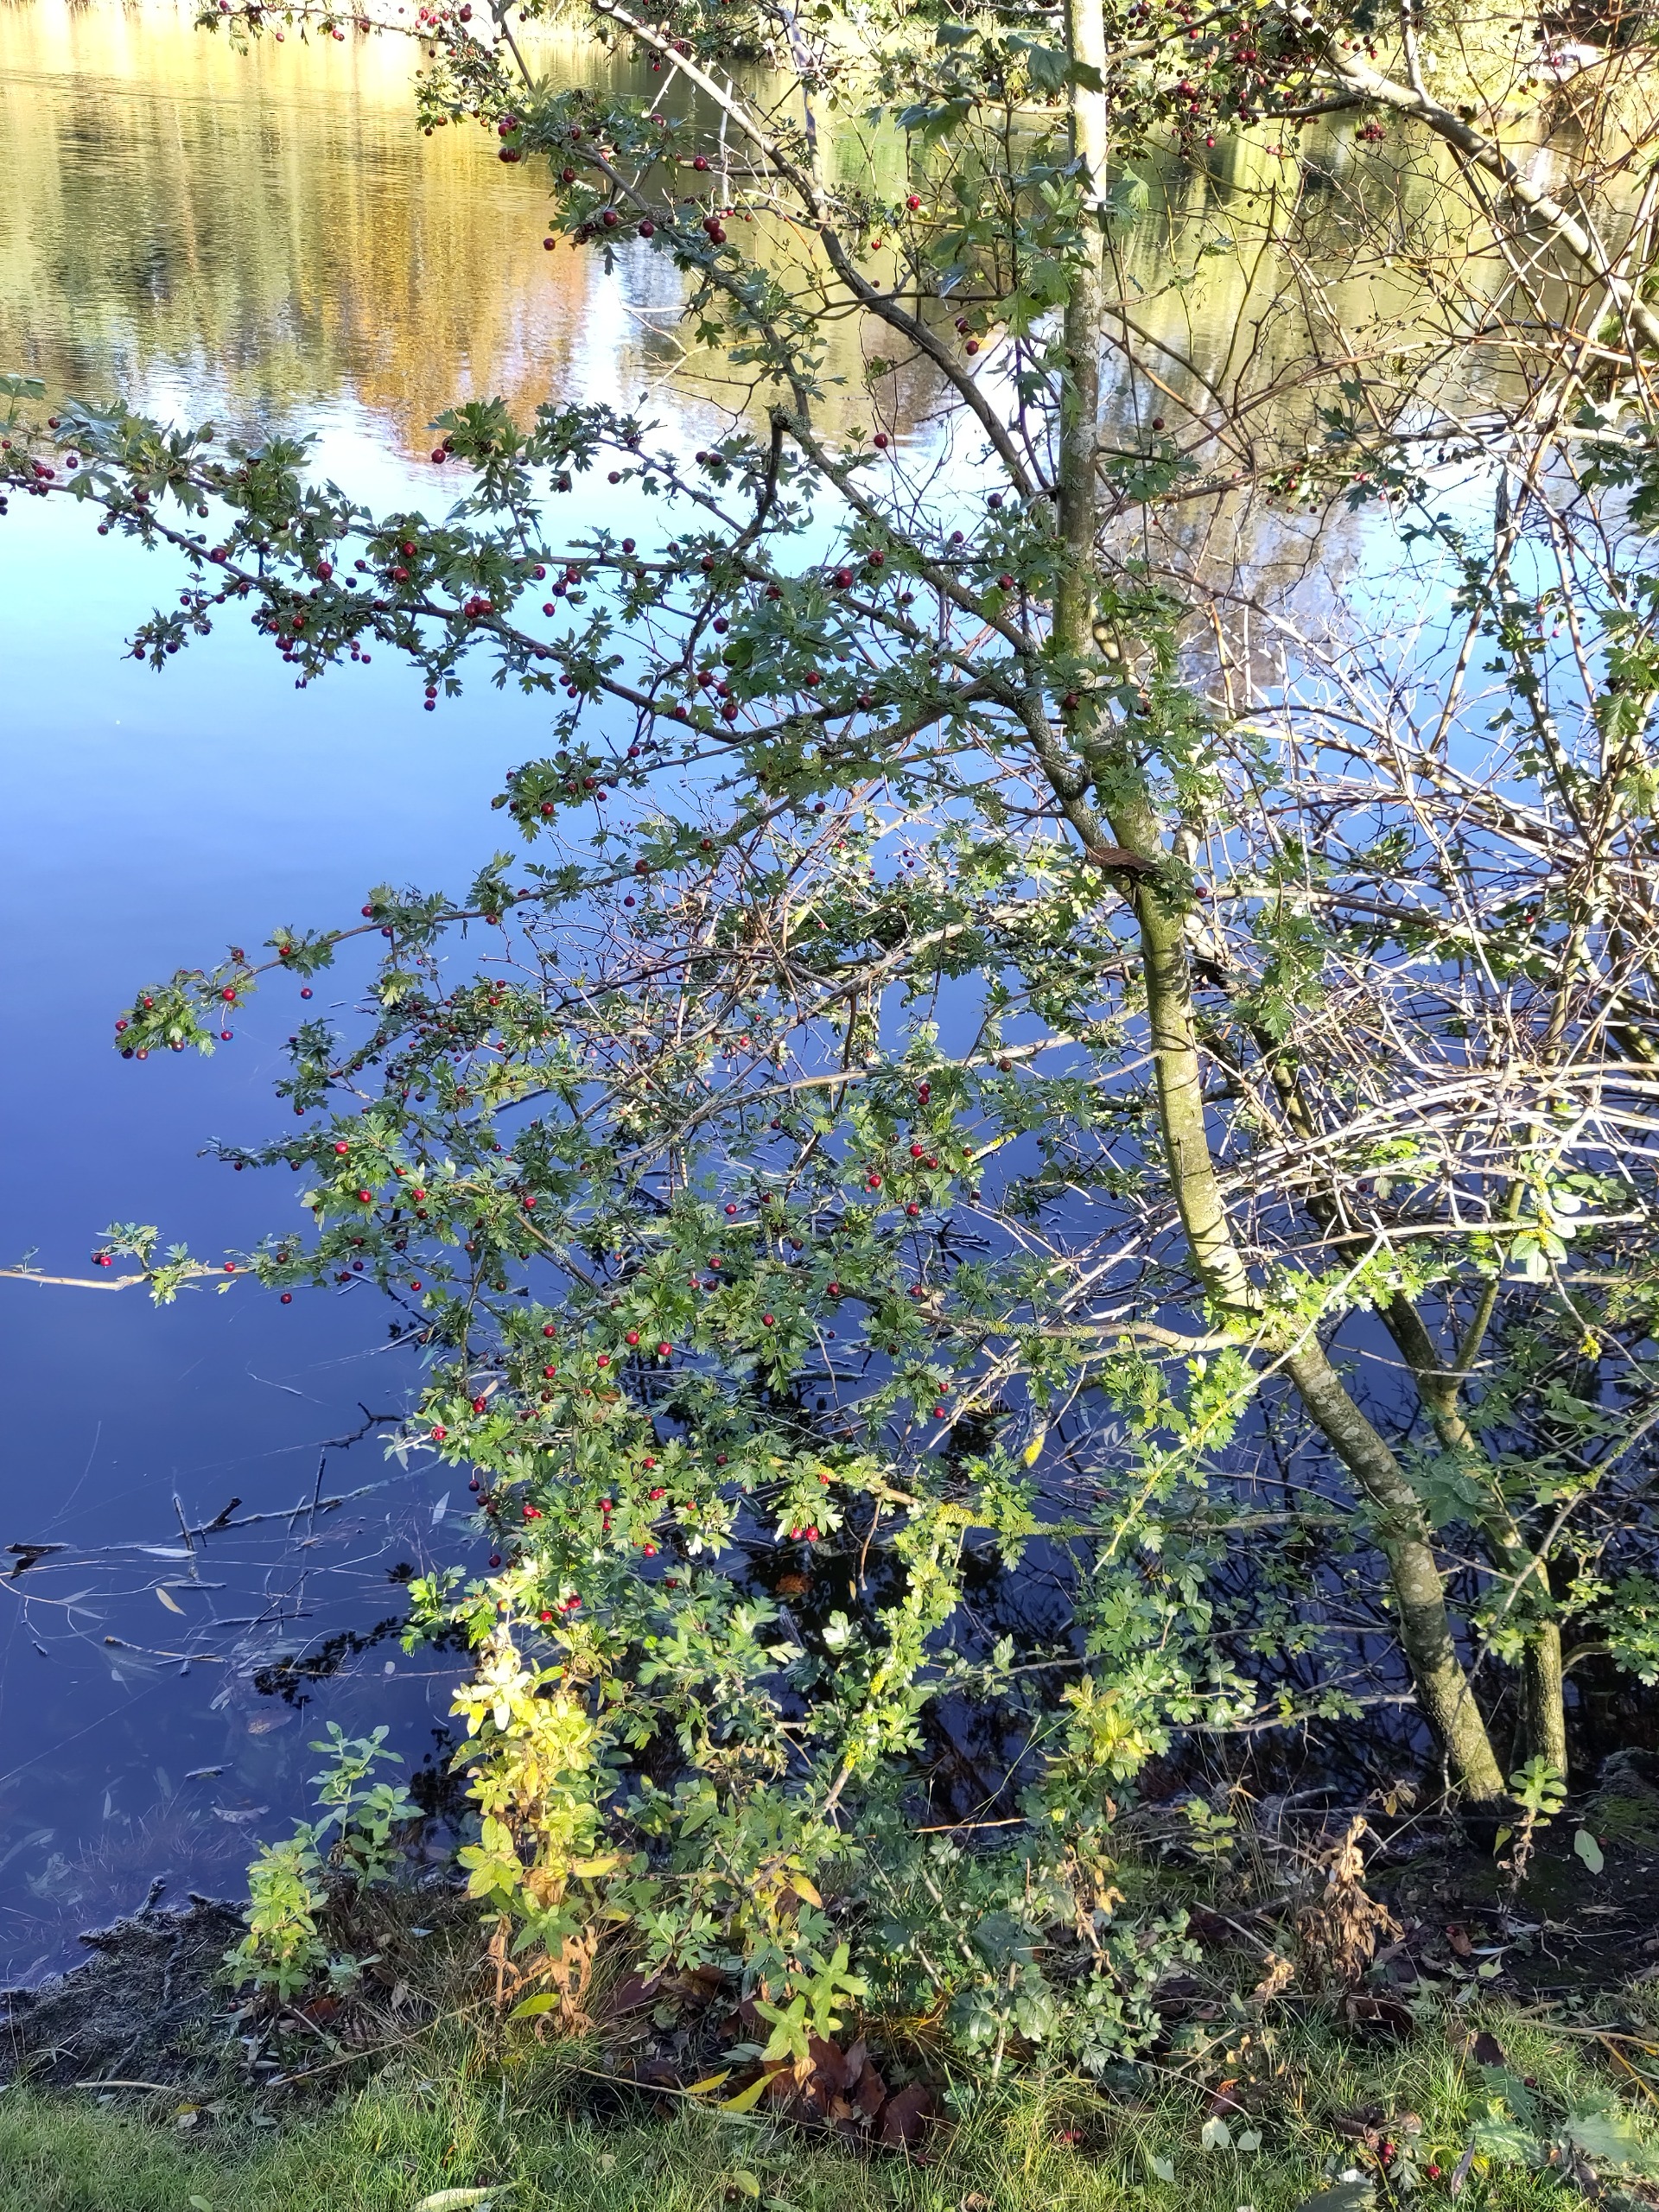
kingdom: Plantae
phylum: Tracheophyta
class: Magnoliopsida
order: Rosales
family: Rosaceae
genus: Crataegus
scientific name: Crataegus monogyna
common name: Engriflet hvidtjørn
